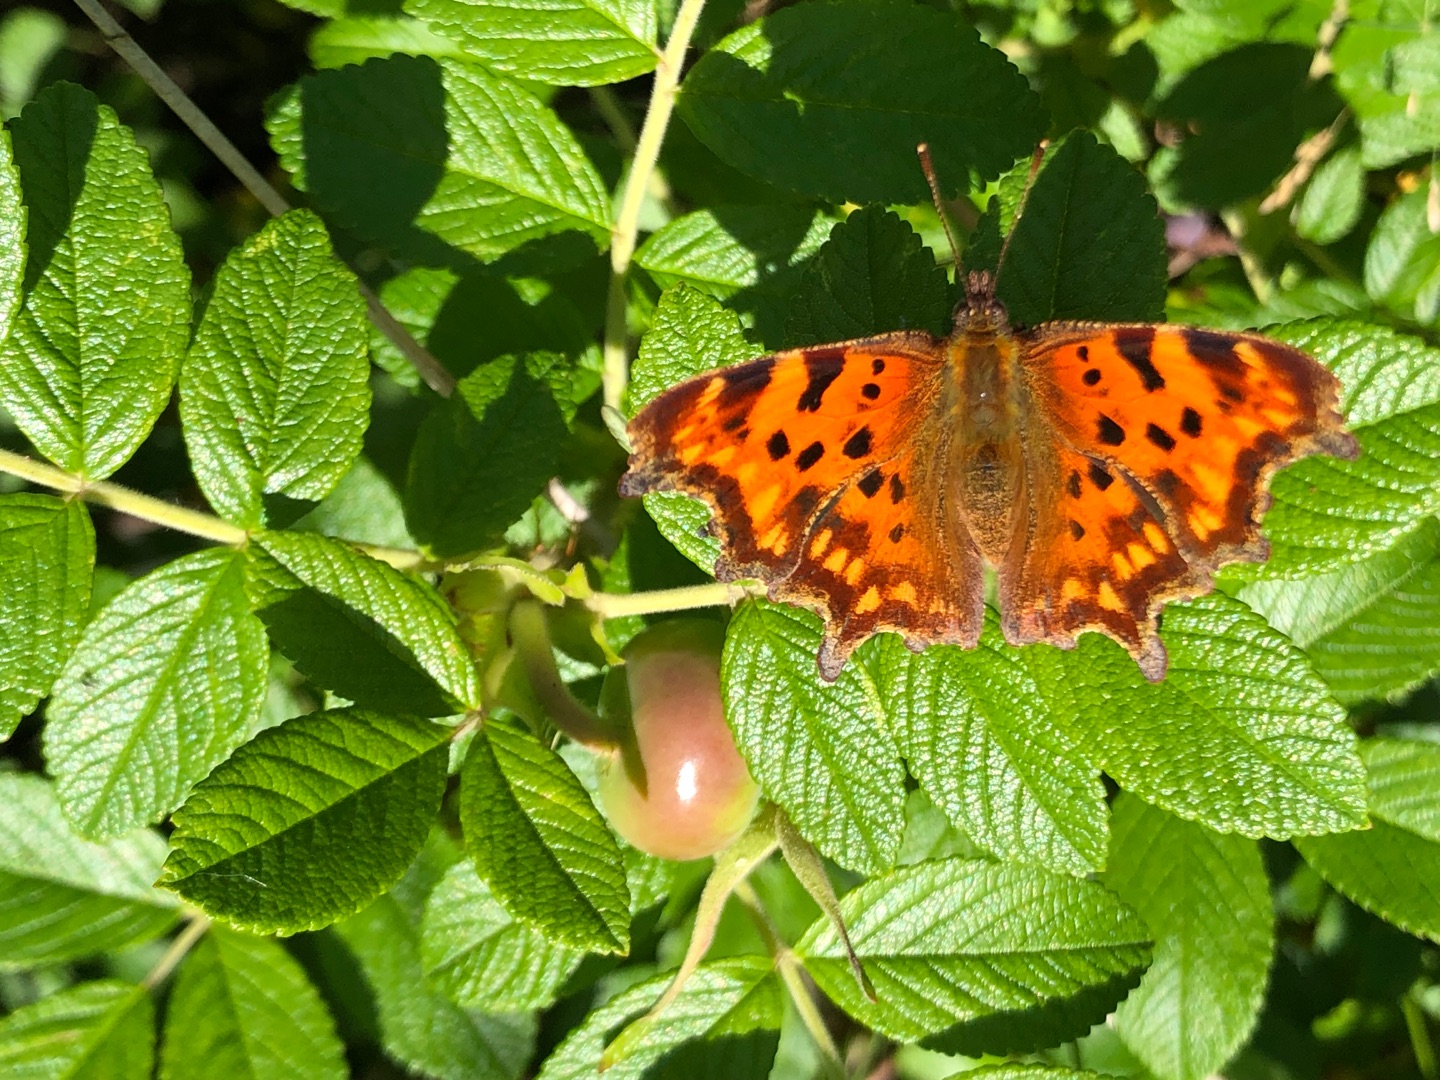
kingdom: Animalia
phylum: Arthropoda
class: Insecta
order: Lepidoptera
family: Nymphalidae
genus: Polygonia
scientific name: Polygonia c-album
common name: Det hvide C
